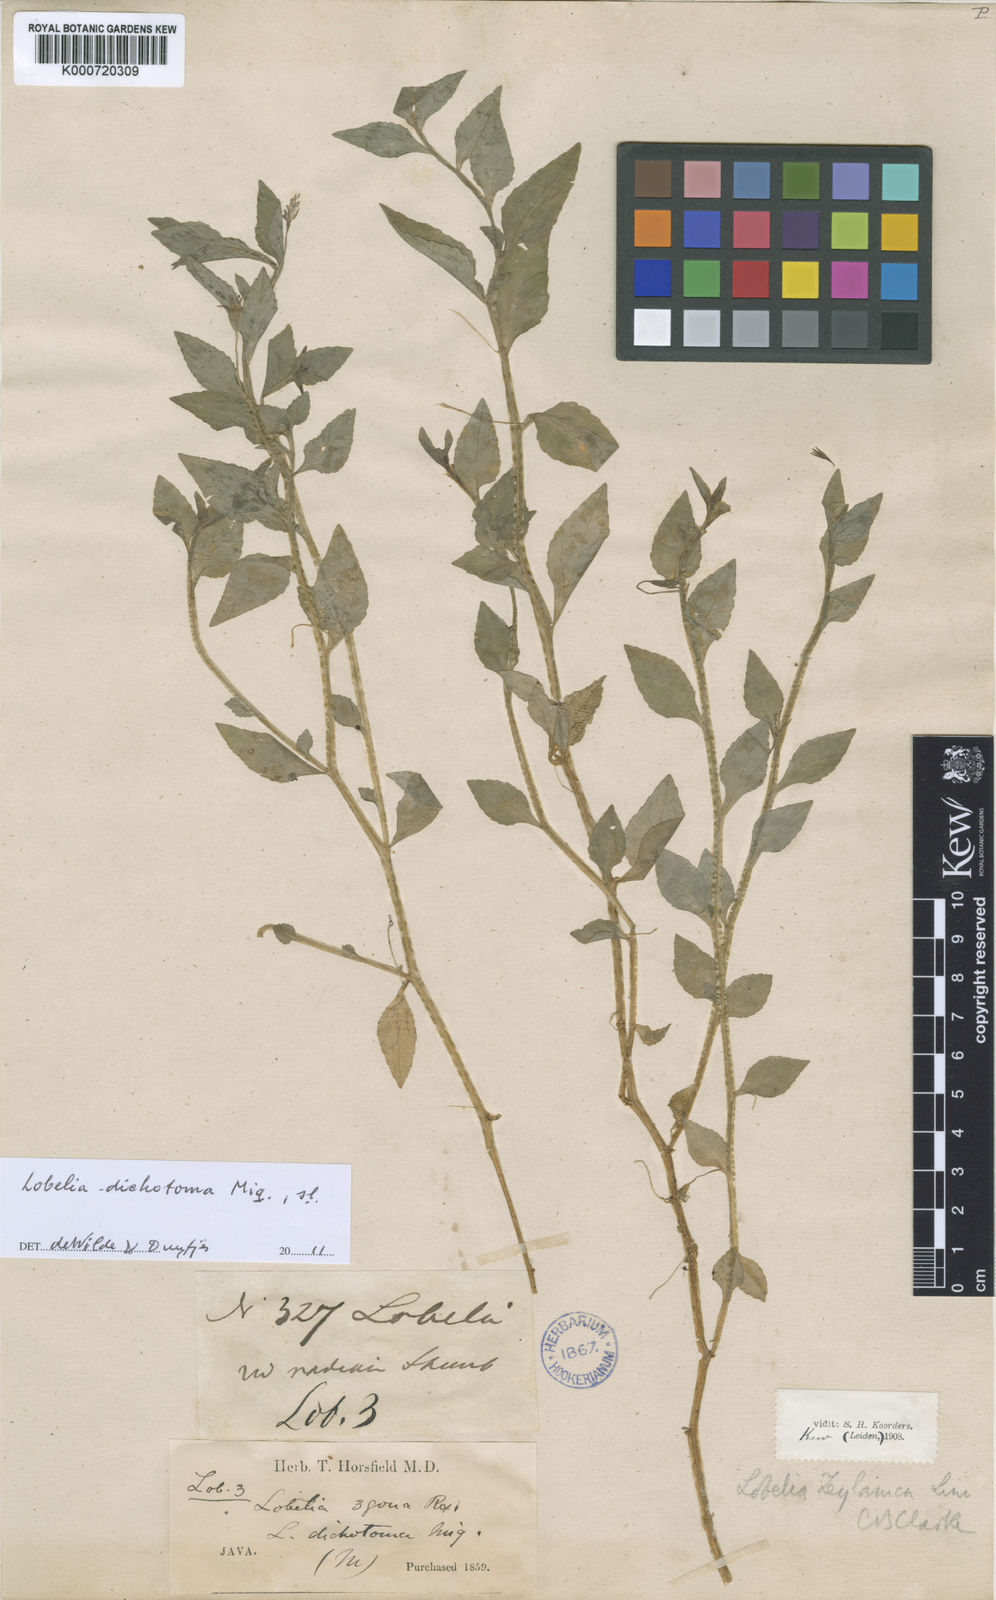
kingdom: Plantae
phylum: Tracheophyta
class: Magnoliopsida
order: Asterales
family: Campanulaceae
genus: Lobelia
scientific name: Lobelia reinwardtiana
